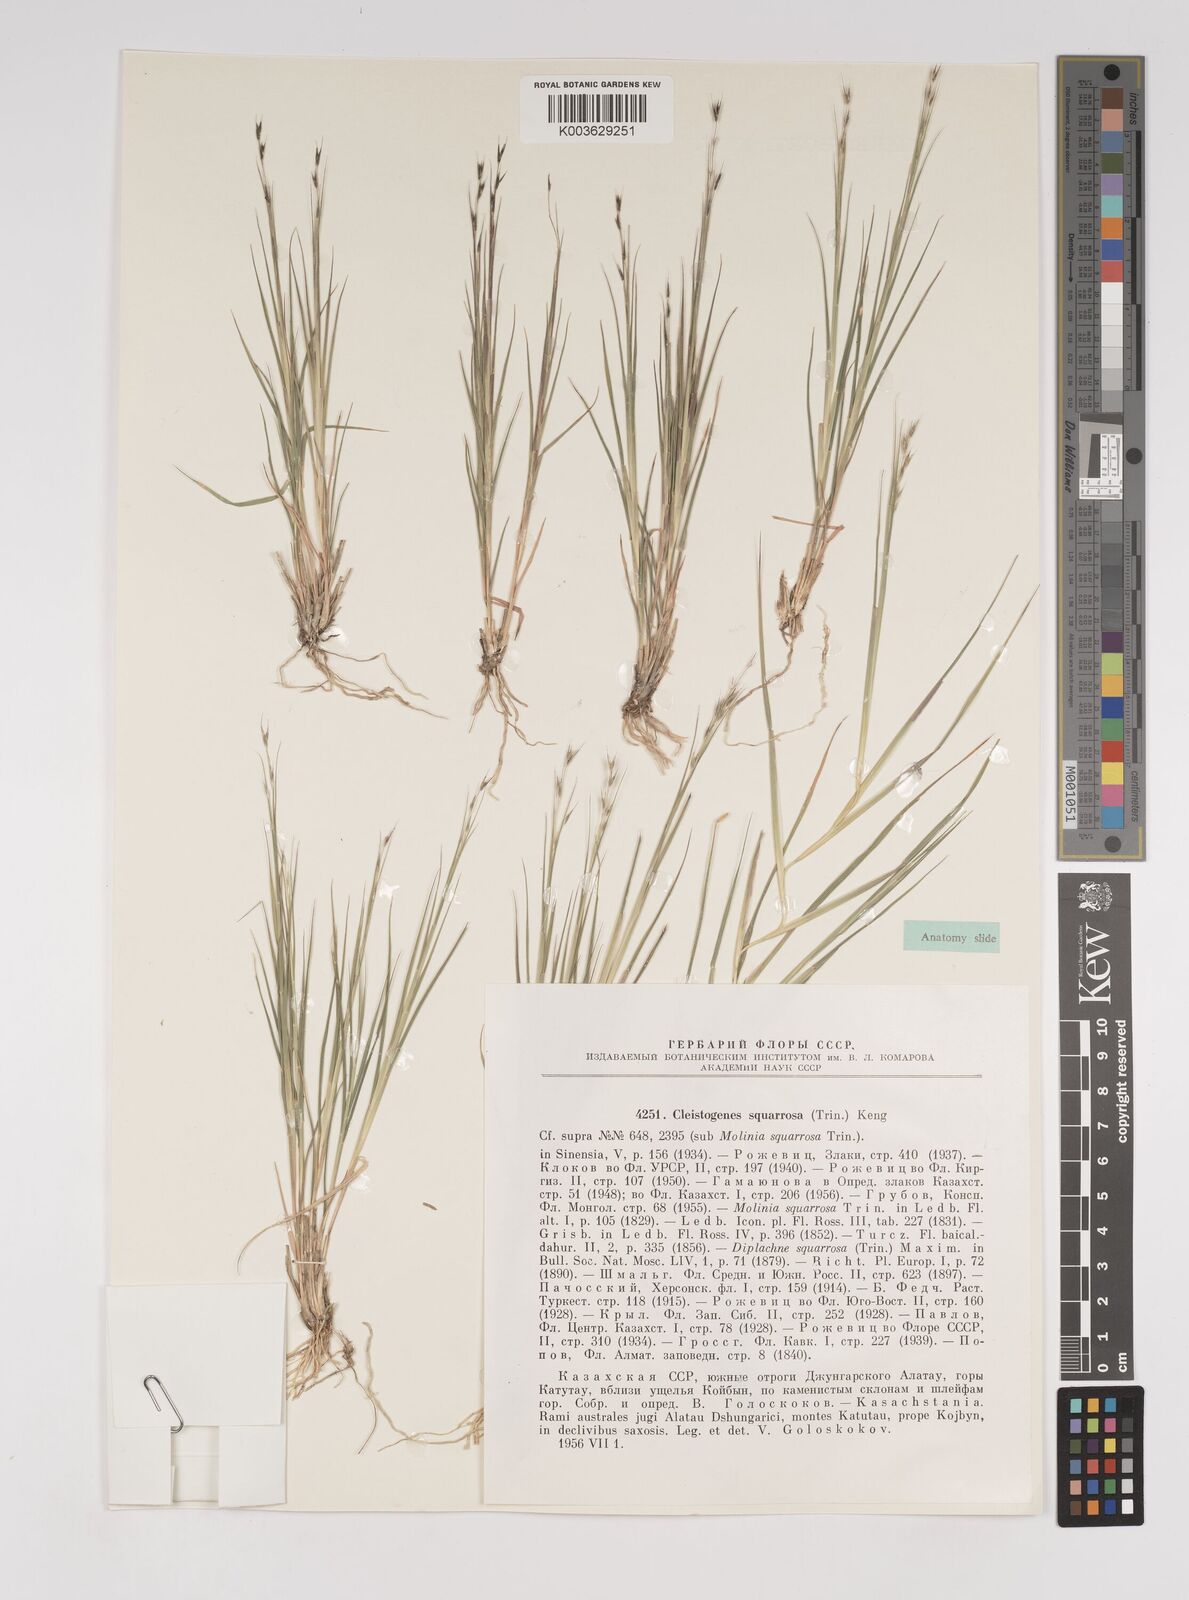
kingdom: Plantae
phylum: Tracheophyta
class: Liliopsida
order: Poales
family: Poaceae
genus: Cleistogenes
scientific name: Cleistogenes squarrosa
